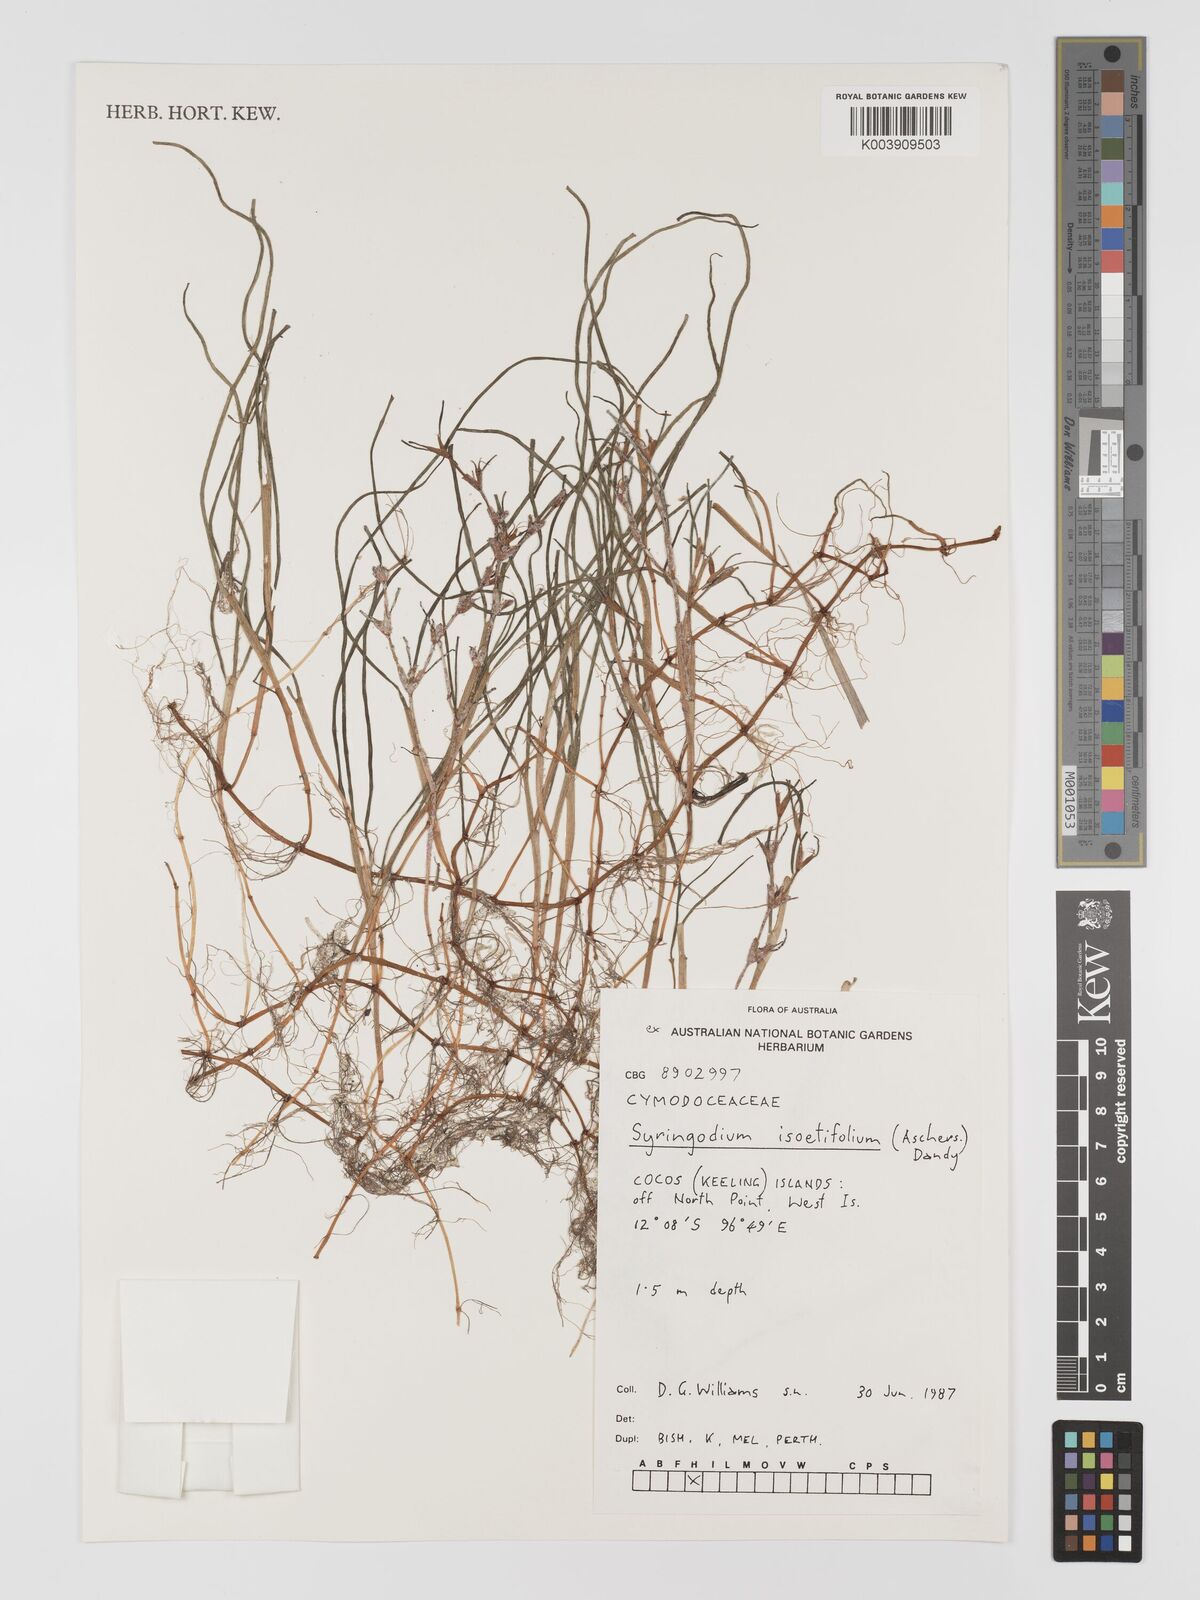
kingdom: Plantae
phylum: Tracheophyta
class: Liliopsida
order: Alismatales
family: Cymodoceaceae
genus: Syringodium
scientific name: Syringodium isoetifolium
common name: Species code: si
